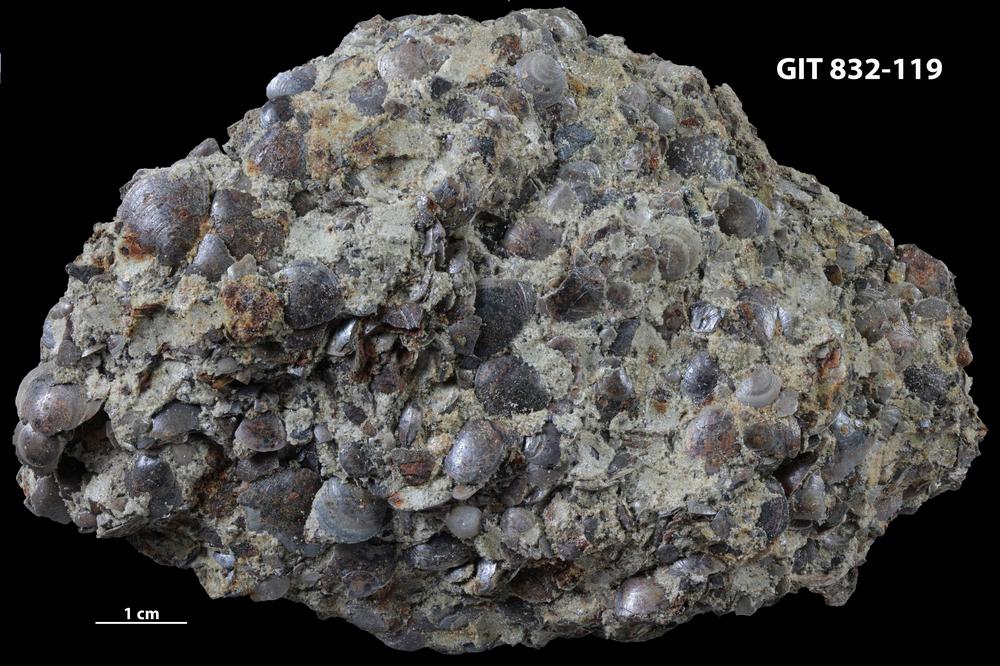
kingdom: Animalia
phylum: Brachiopoda
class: Lingulata
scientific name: Lingulata
